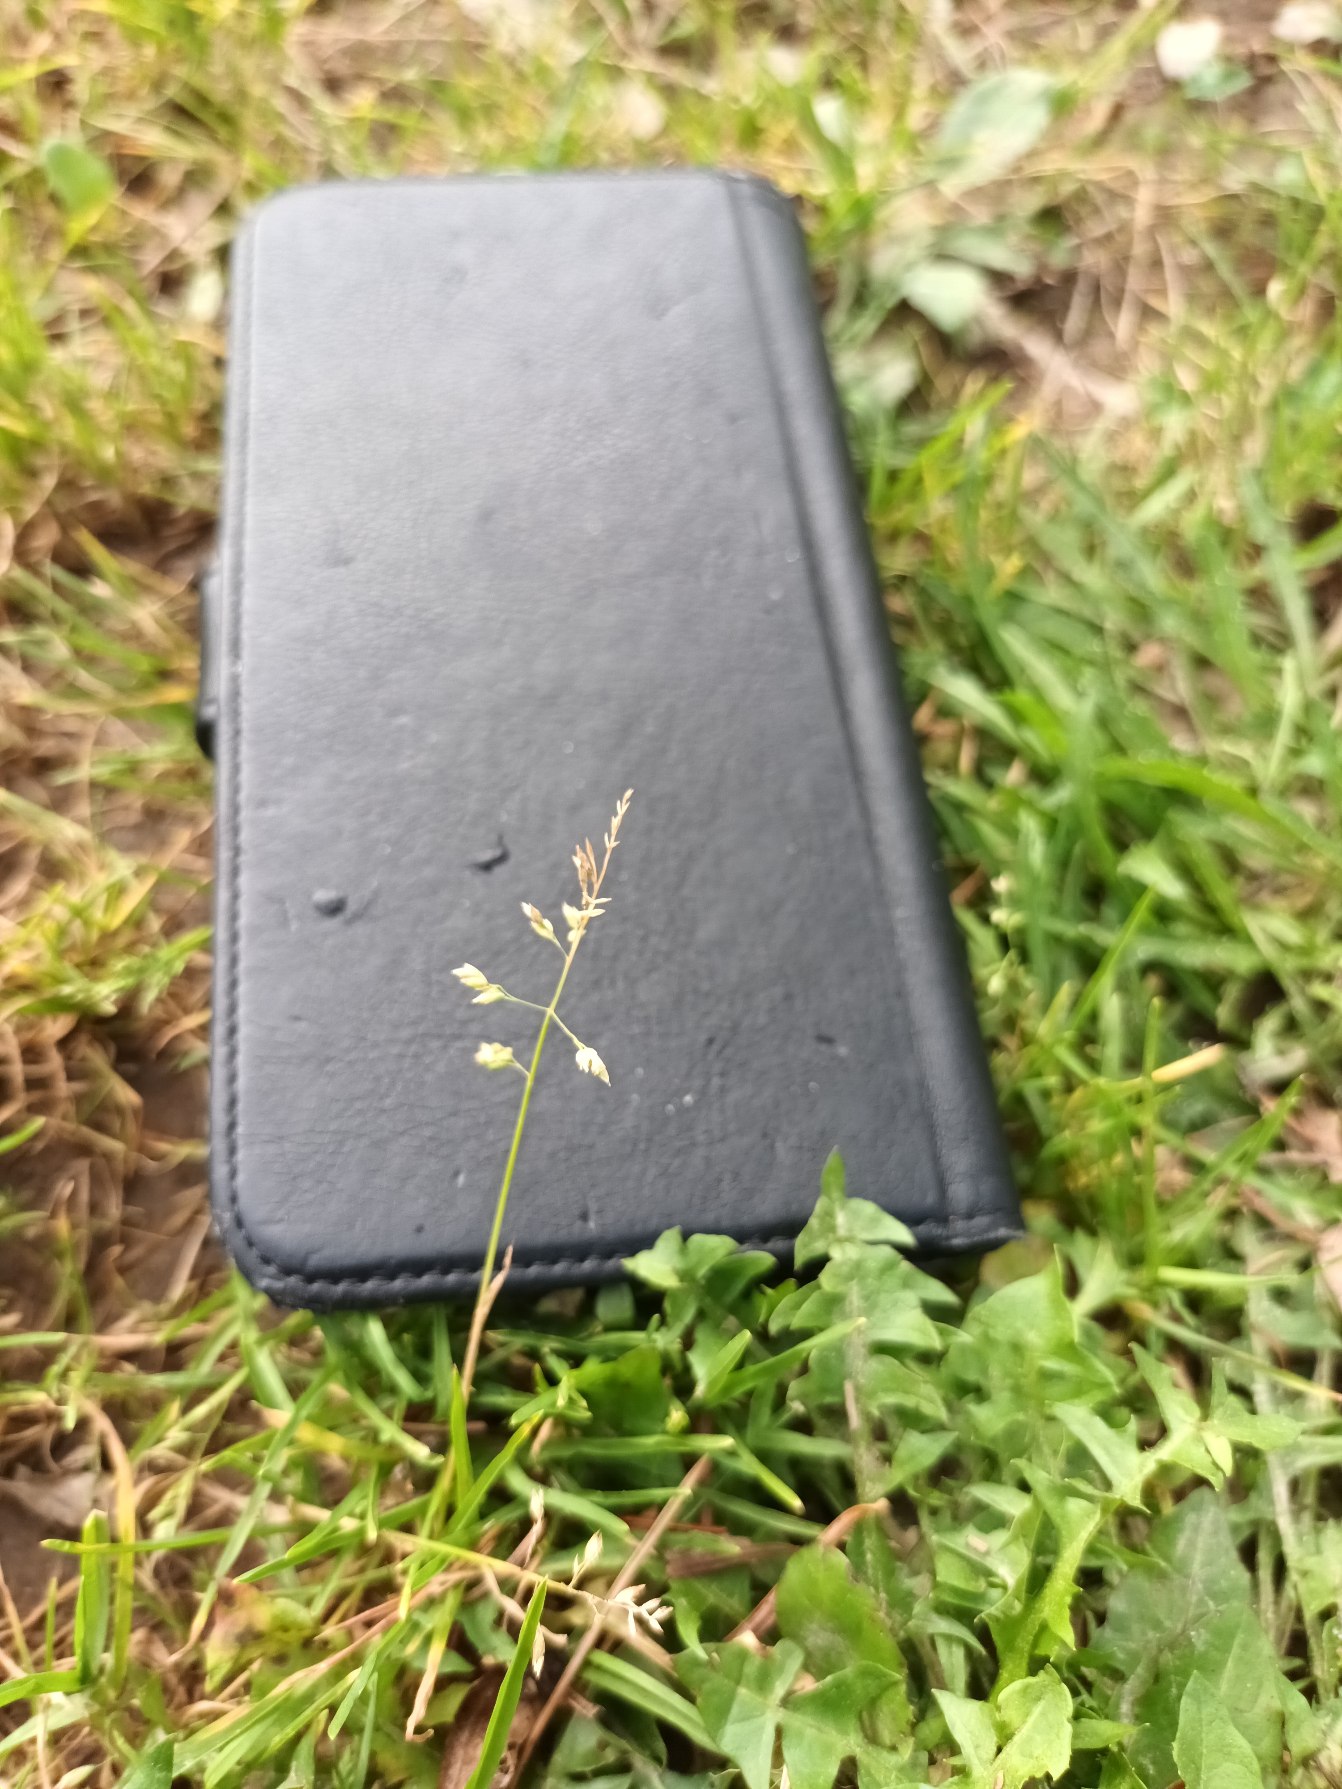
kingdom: Plantae
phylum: Tracheophyta
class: Liliopsida
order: Poales
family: Poaceae
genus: Poa
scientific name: Poa annua
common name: Enårig rapgræs
